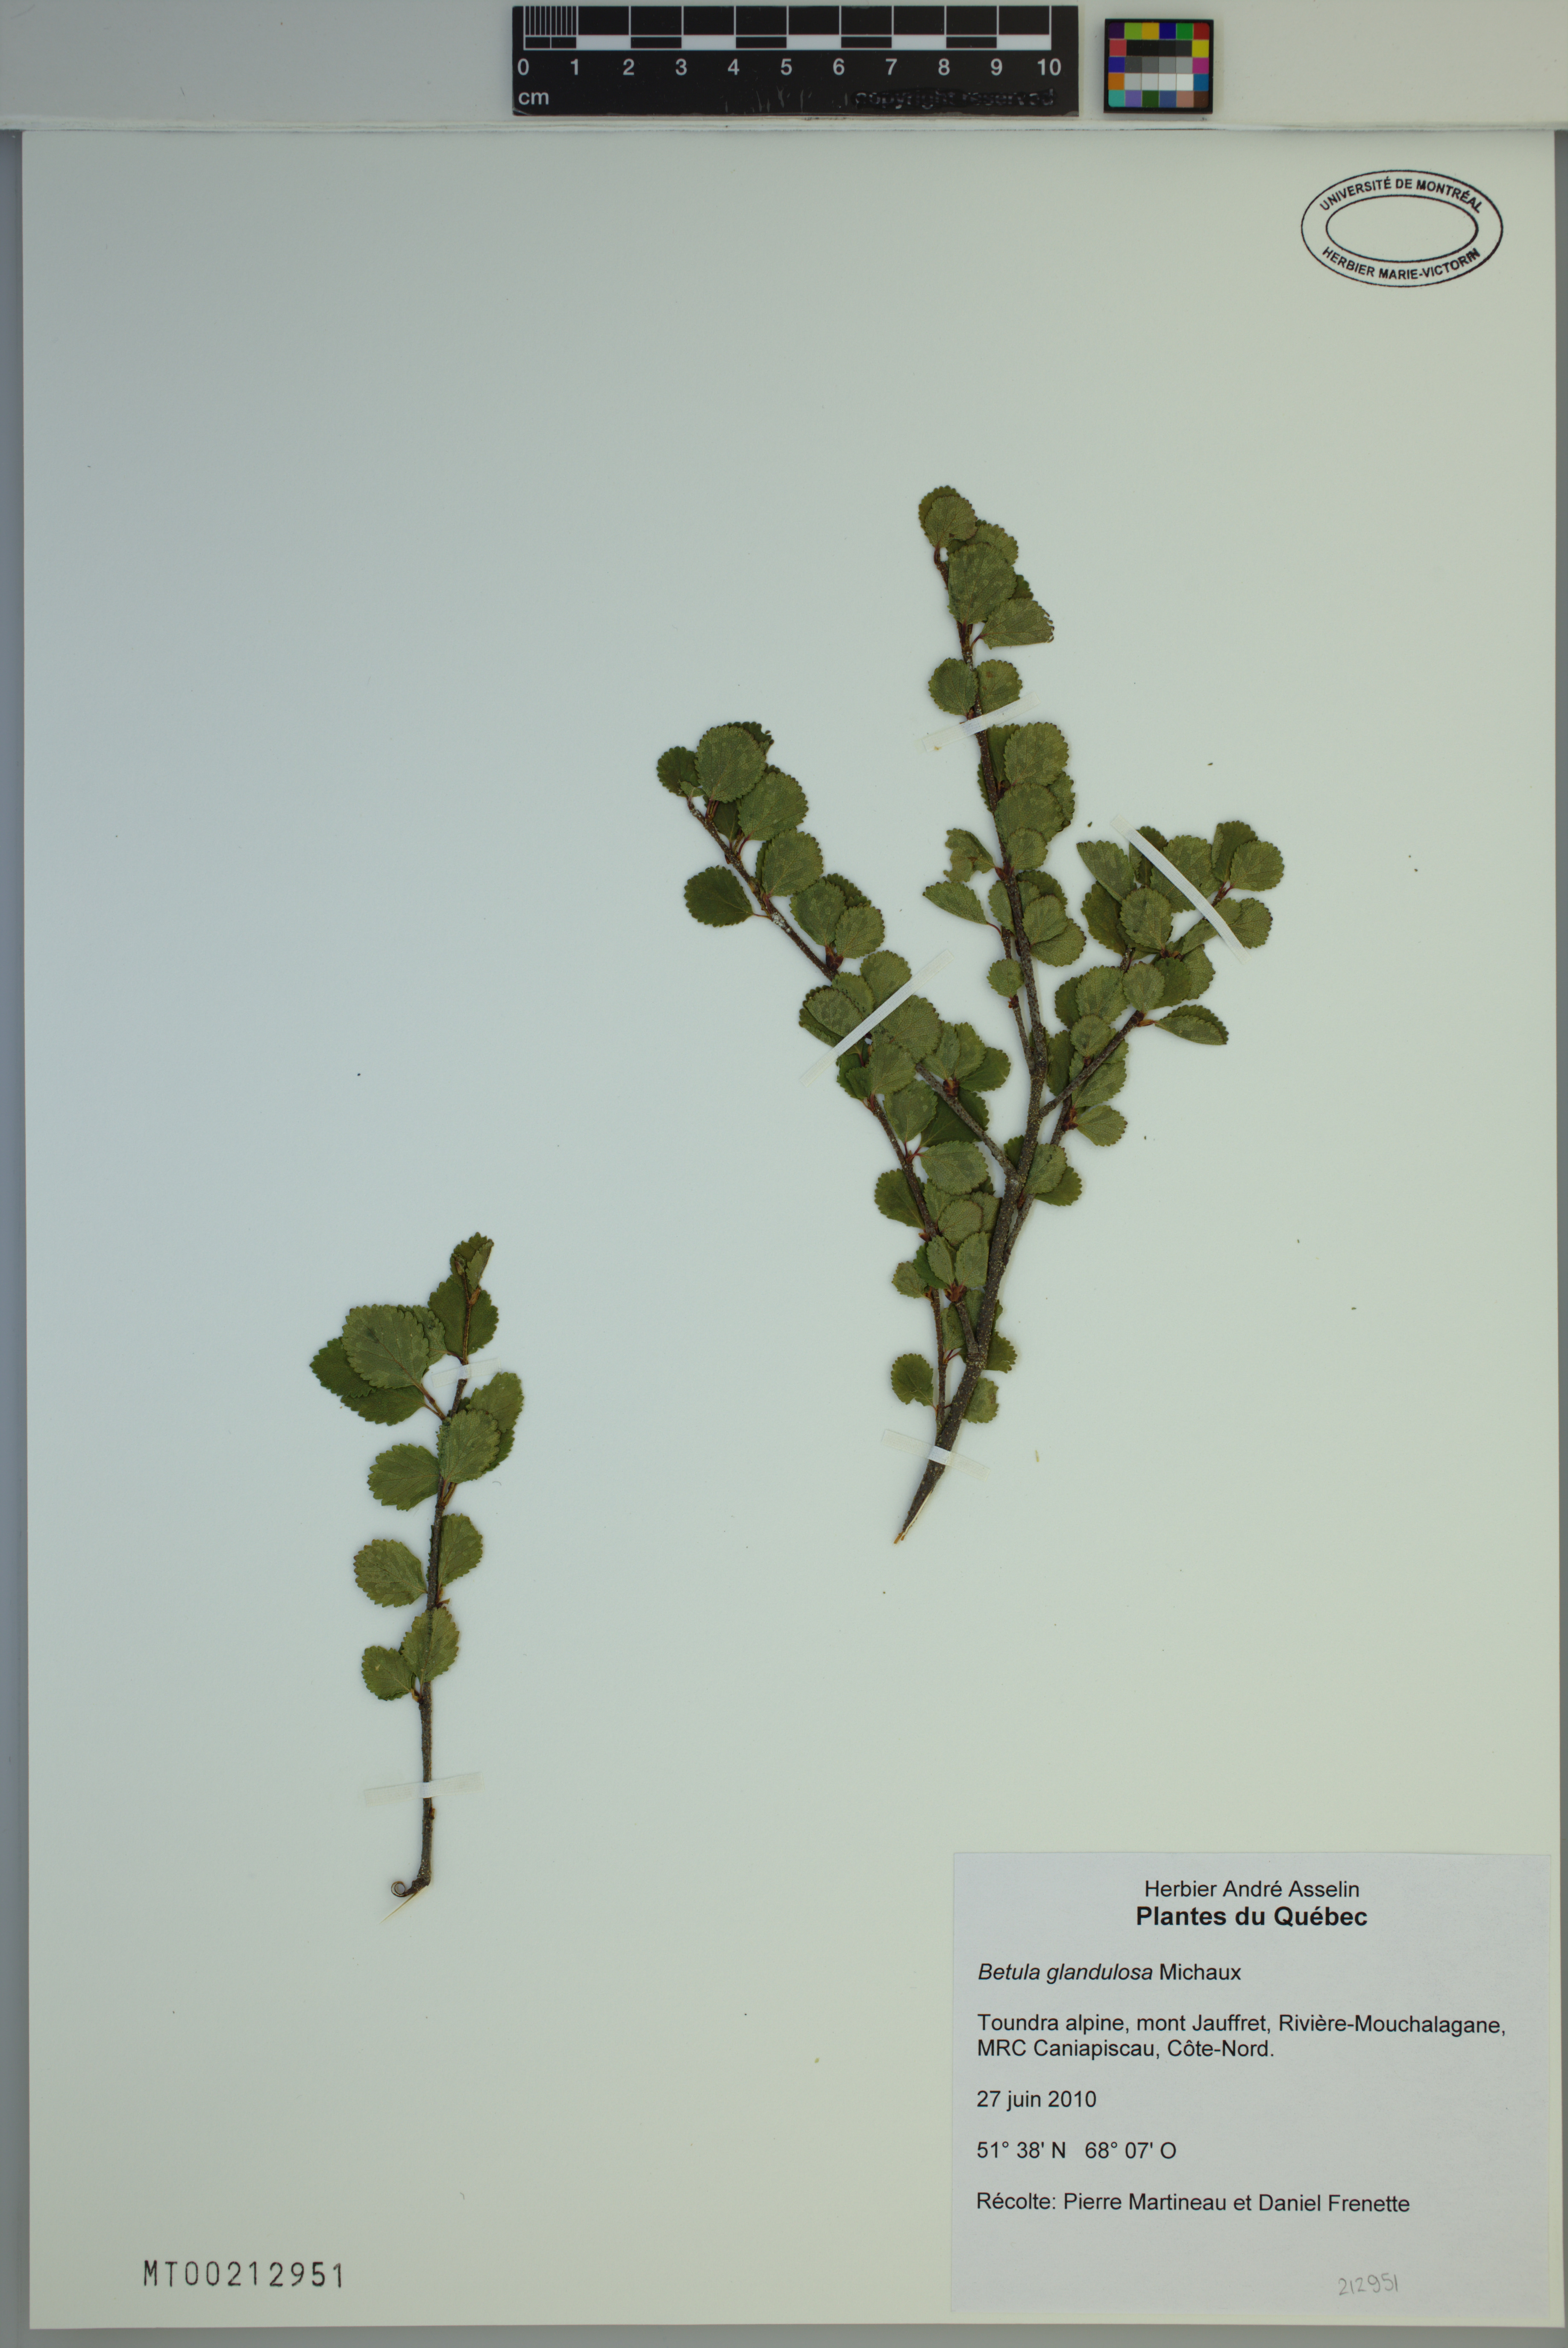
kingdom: Plantae
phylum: Tracheophyta
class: Magnoliopsida
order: Fagales
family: Betulaceae
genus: Betula
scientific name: Betula glandulosa
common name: Dwarf birch
